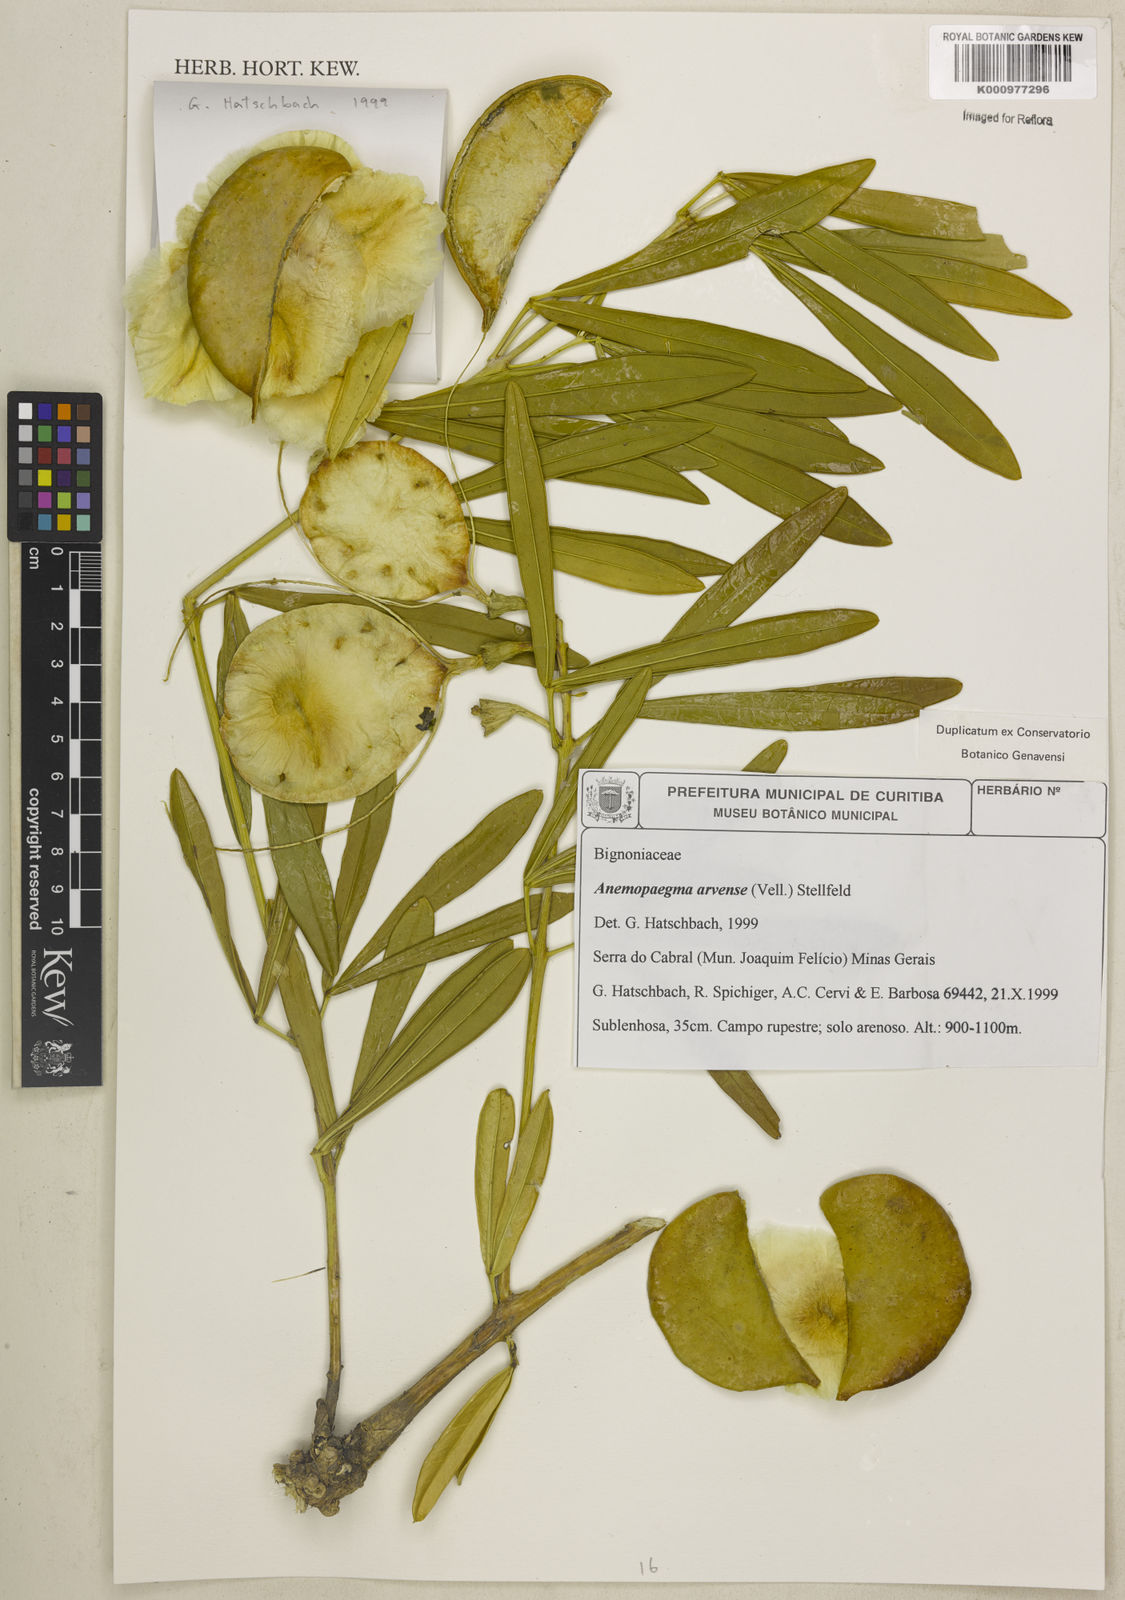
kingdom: Plantae
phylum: Tracheophyta
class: Magnoliopsida
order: Lamiales
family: Bignoniaceae
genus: Anemopaegma
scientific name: Anemopaegma arvense
